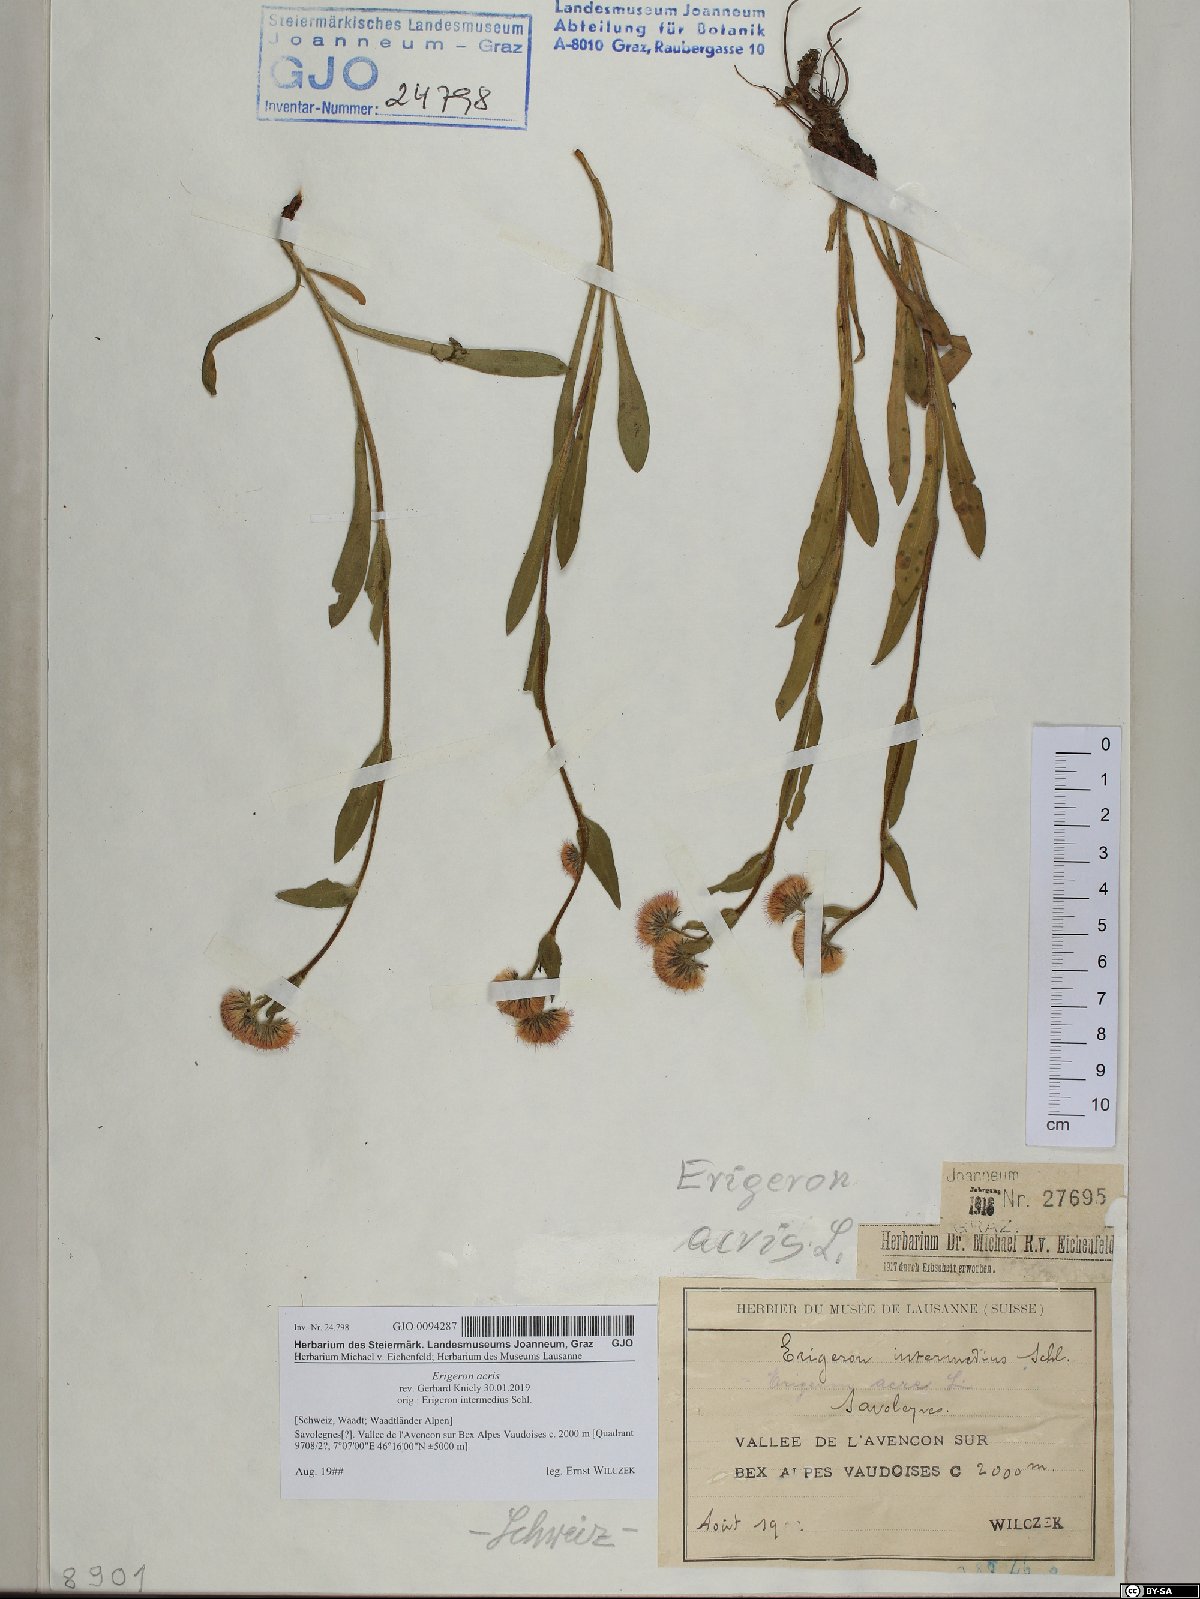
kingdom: Plantae
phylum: Tracheophyta
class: Magnoliopsida
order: Asterales
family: Asteraceae
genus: Erigeron
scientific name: Erigeron acris
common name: Blue fleabane
